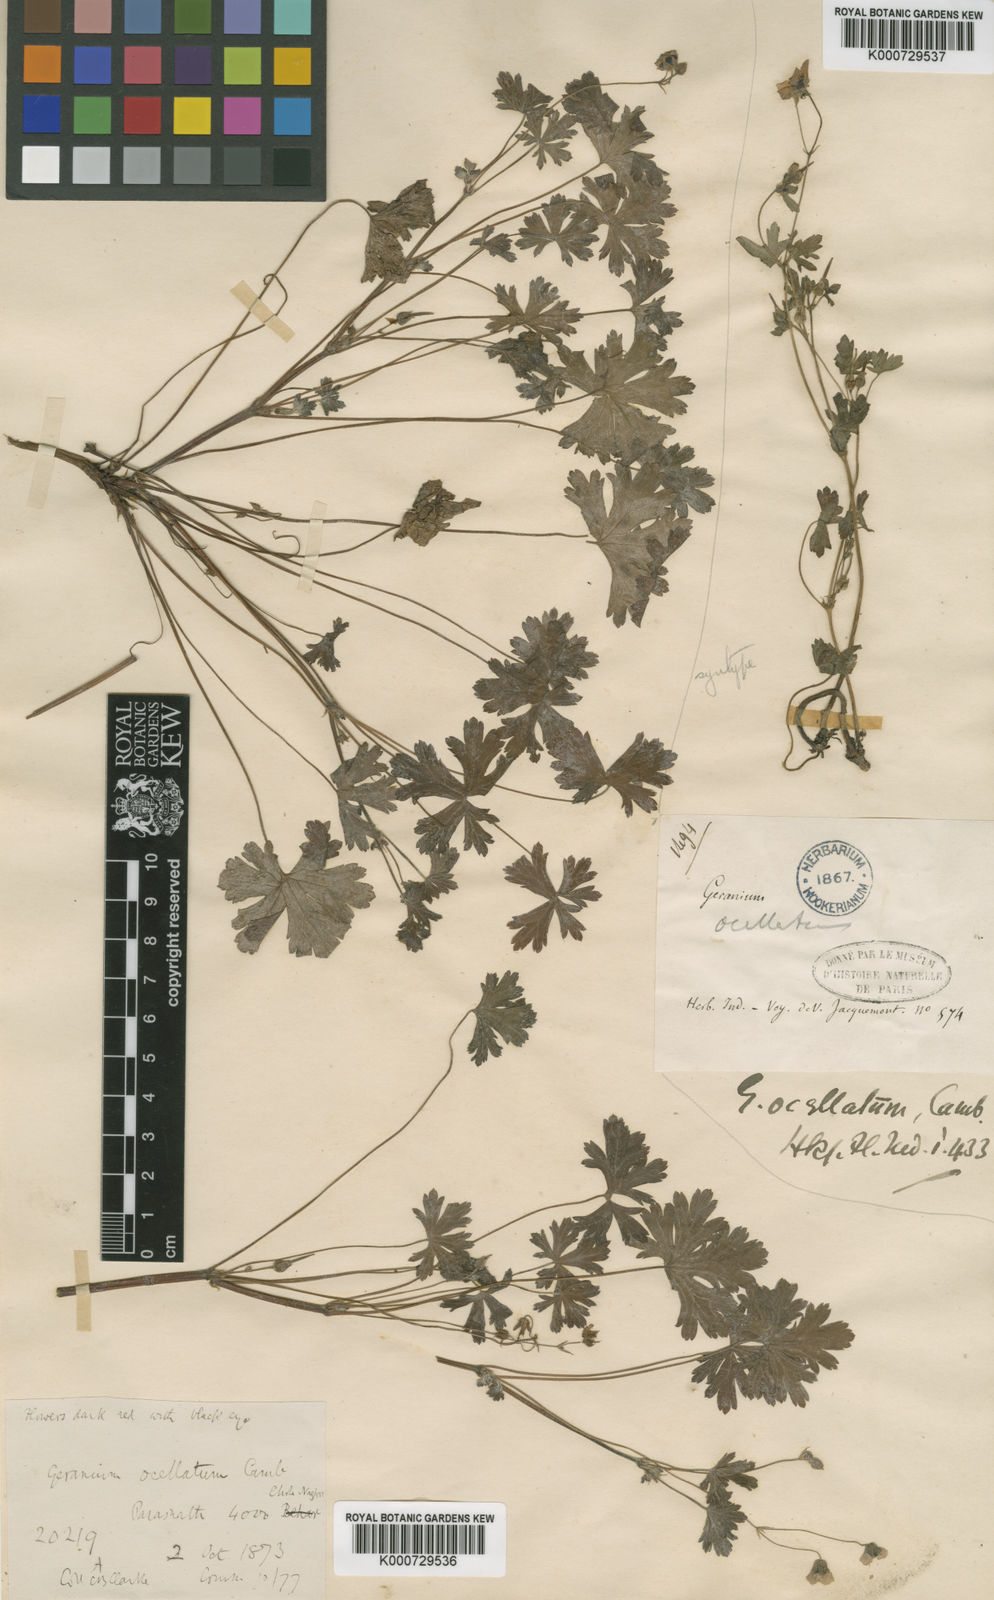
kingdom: Plantae
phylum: Tracheophyta
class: Magnoliopsida
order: Geraniales
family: Geraniaceae
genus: Geranium
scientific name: Geranium ocellatum
